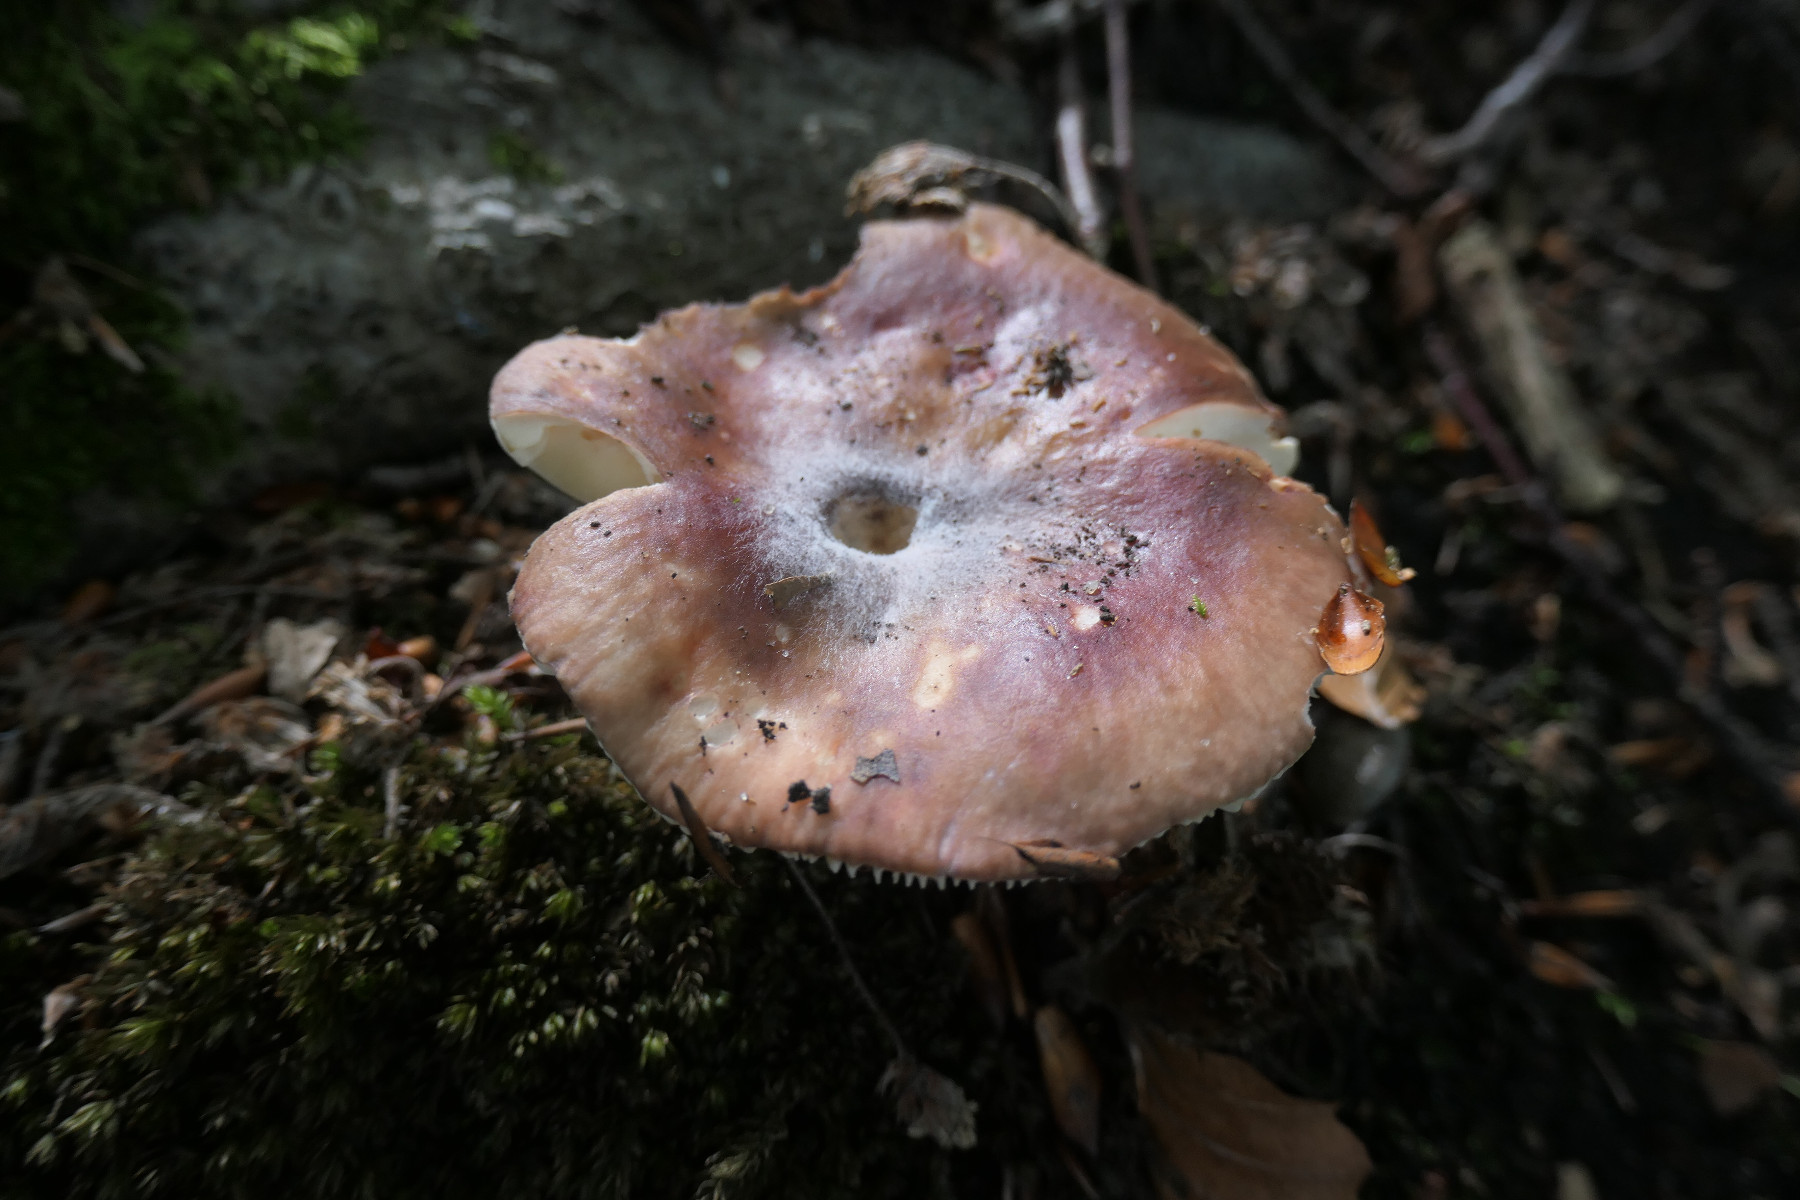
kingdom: Fungi
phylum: Basidiomycota
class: Agaricomycetes
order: Russulales
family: Russulaceae
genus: Russula
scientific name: Russula romellii
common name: romells skørhat
